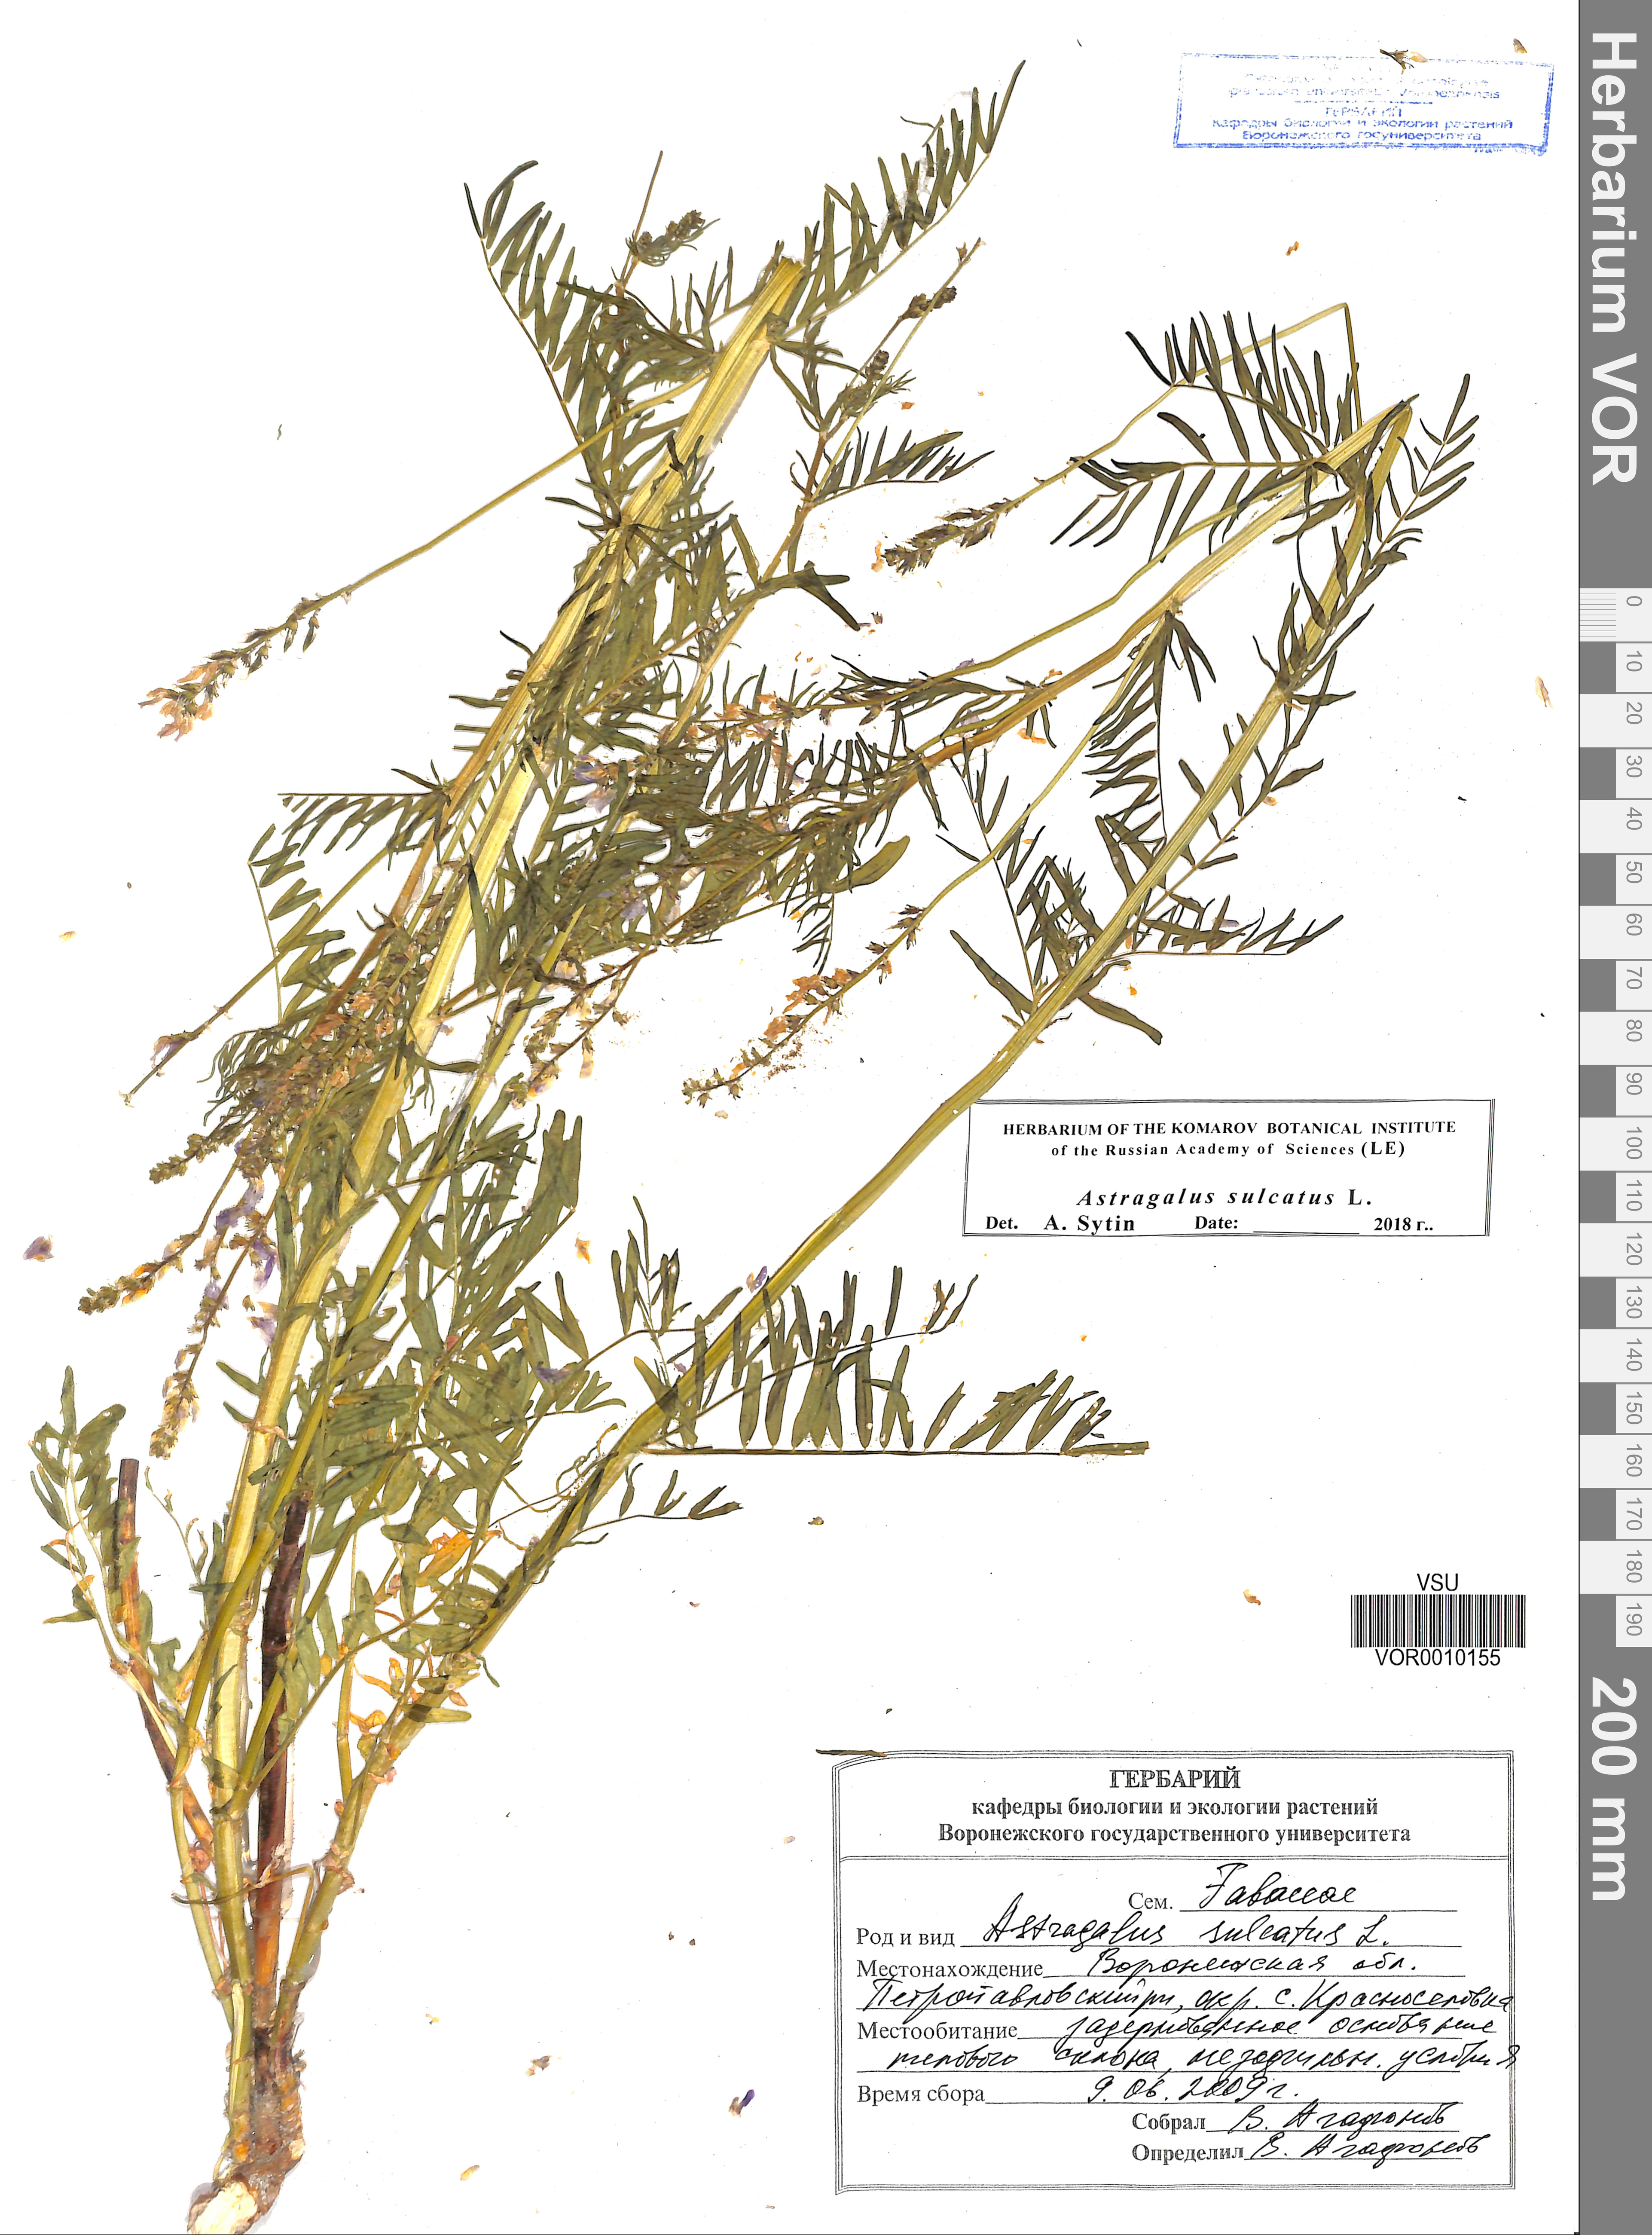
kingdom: Plantae
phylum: Tracheophyta
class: Magnoliopsida
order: Fabales
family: Fabaceae
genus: Astragalus
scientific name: Astragalus sulcatus
